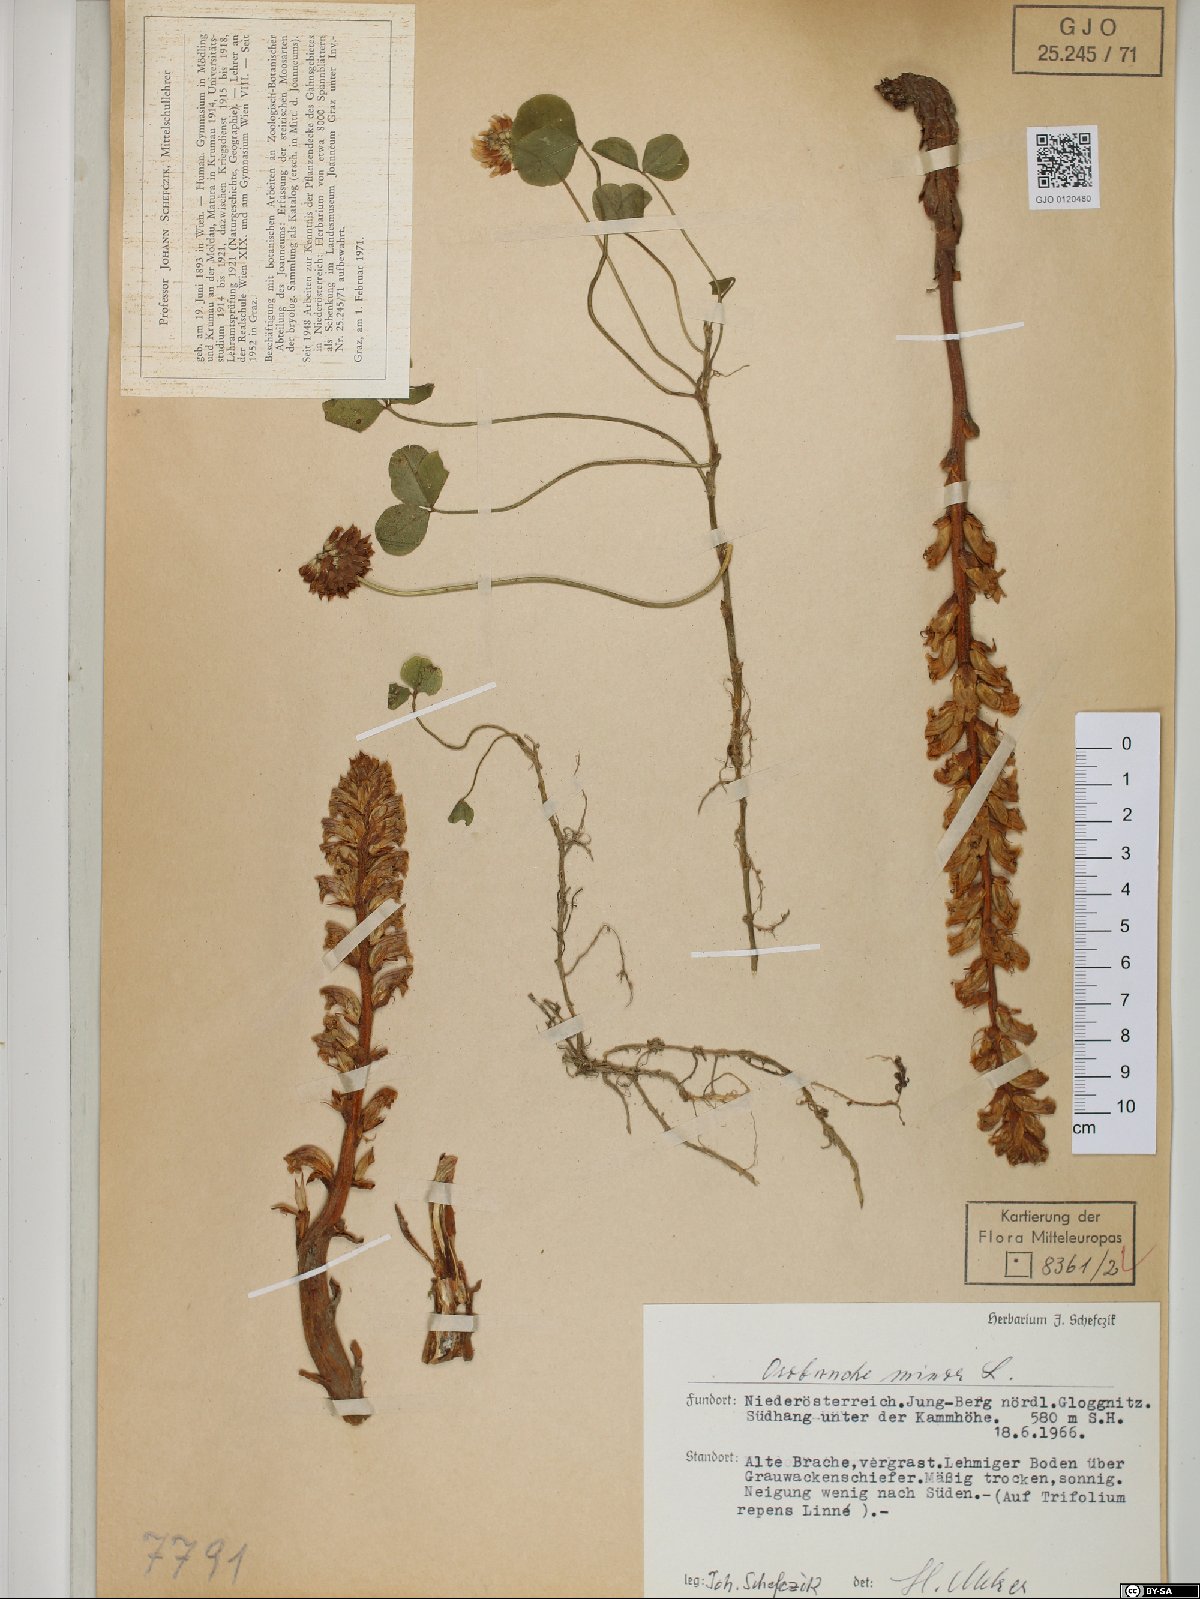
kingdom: Plantae
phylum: Tracheophyta
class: Magnoliopsida
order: Lamiales
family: Orobanchaceae
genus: Orobanche
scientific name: Orobanche minor
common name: Common broomrape
